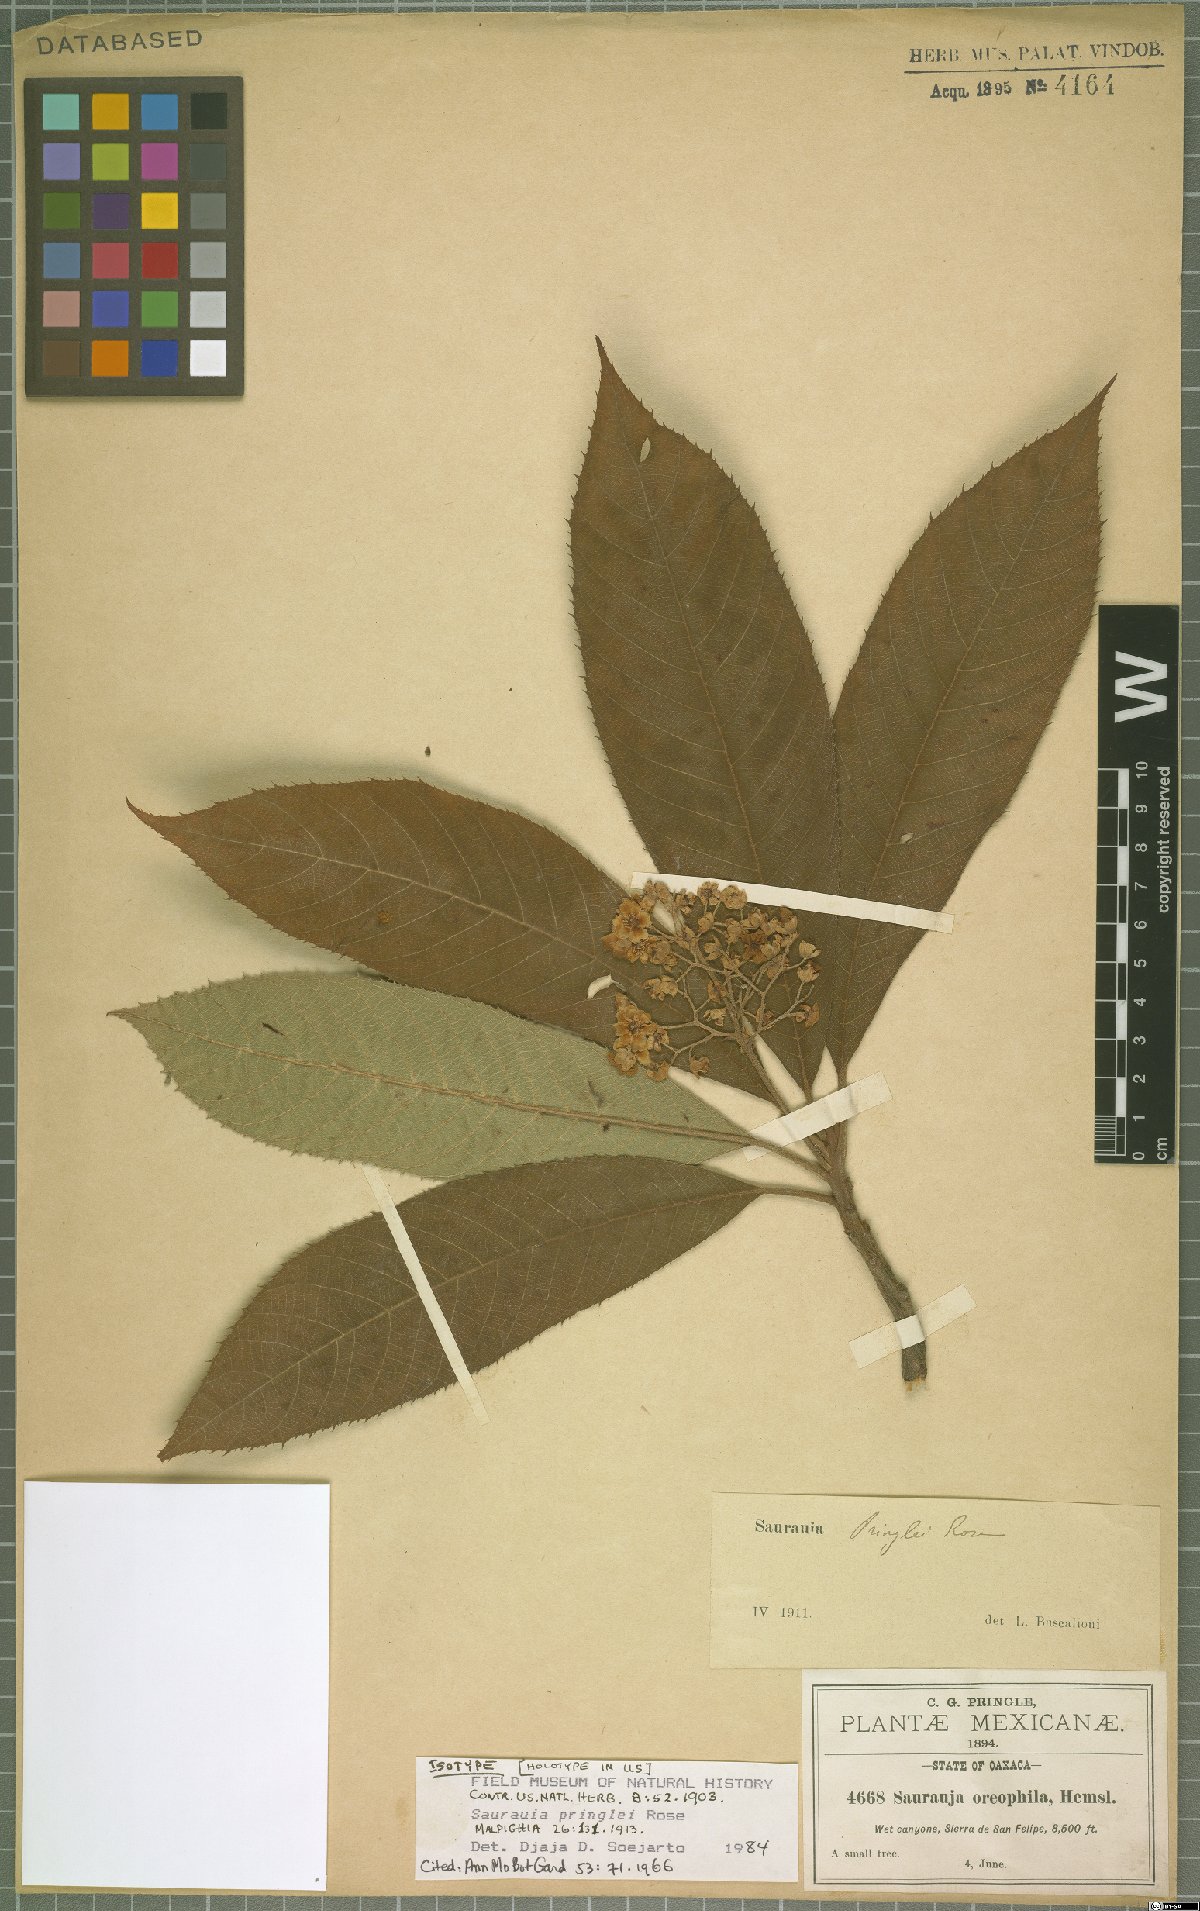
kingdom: Plantae
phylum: Tracheophyta
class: Magnoliopsida
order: Ericales
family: Actinidiaceae
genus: Saurauia
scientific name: Saurauia pringlei
